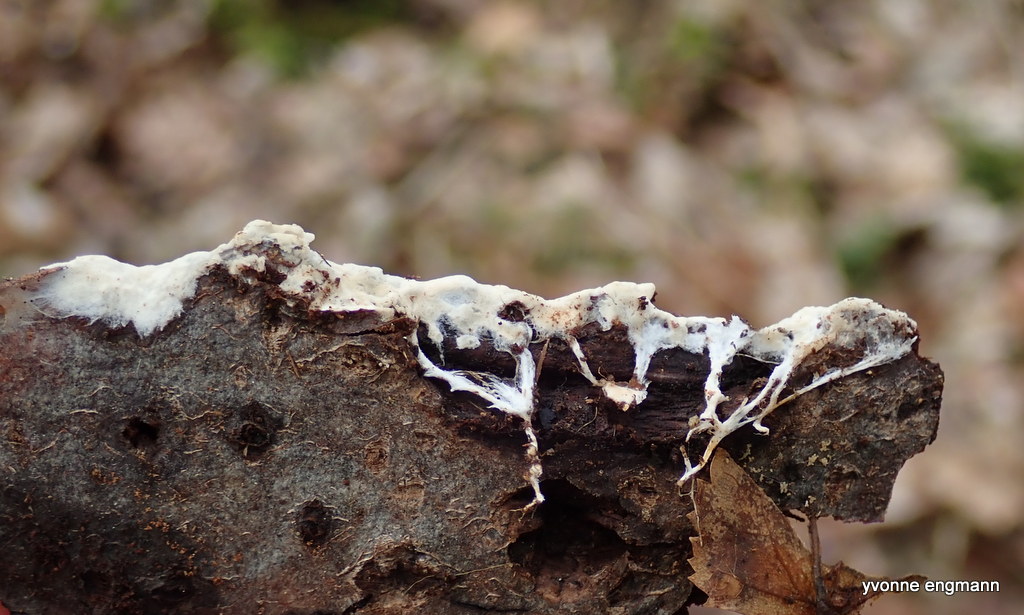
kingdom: Fungi
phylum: Basidiomycota
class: Agaricomycetes
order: Corticiales
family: Corticiaceae
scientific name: Corticiaceae
